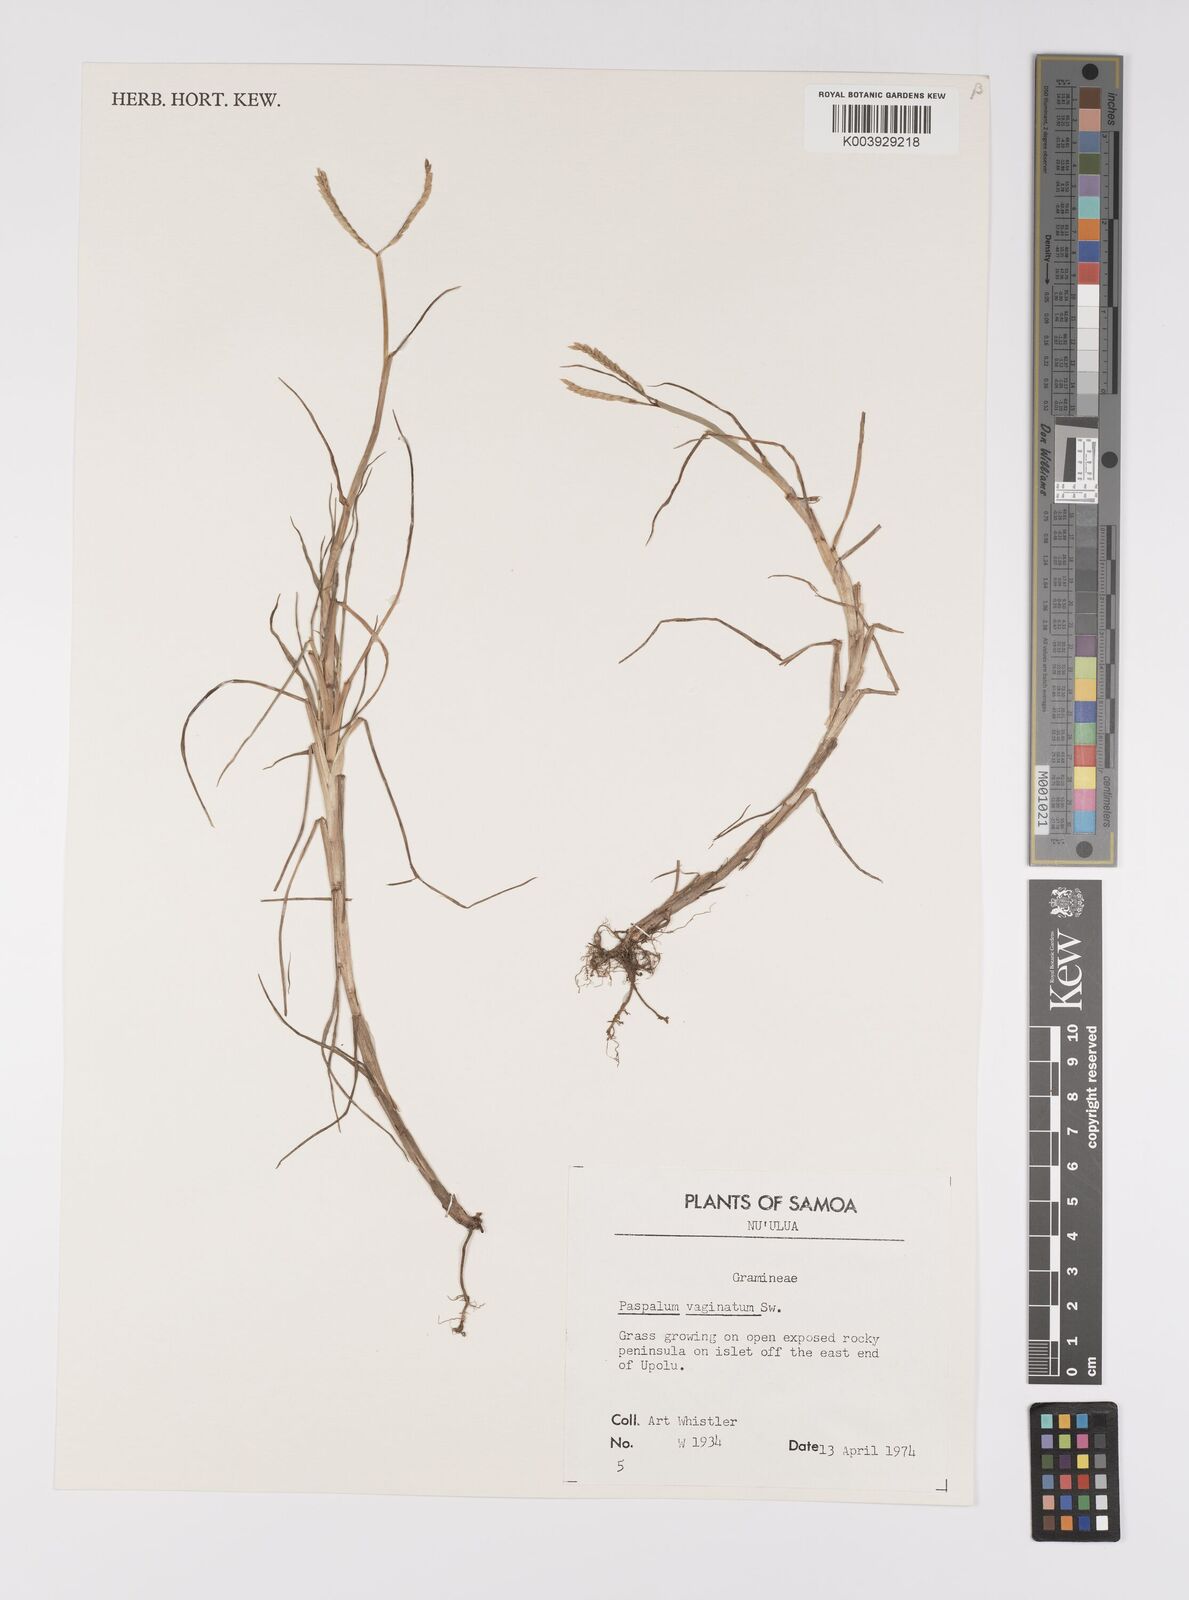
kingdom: Plantae
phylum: Tracheophyta
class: Liliopsida
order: Poales
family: Poaceae
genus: Paspalum
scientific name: Paspalum vaginatum
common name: Seashore paspalum
